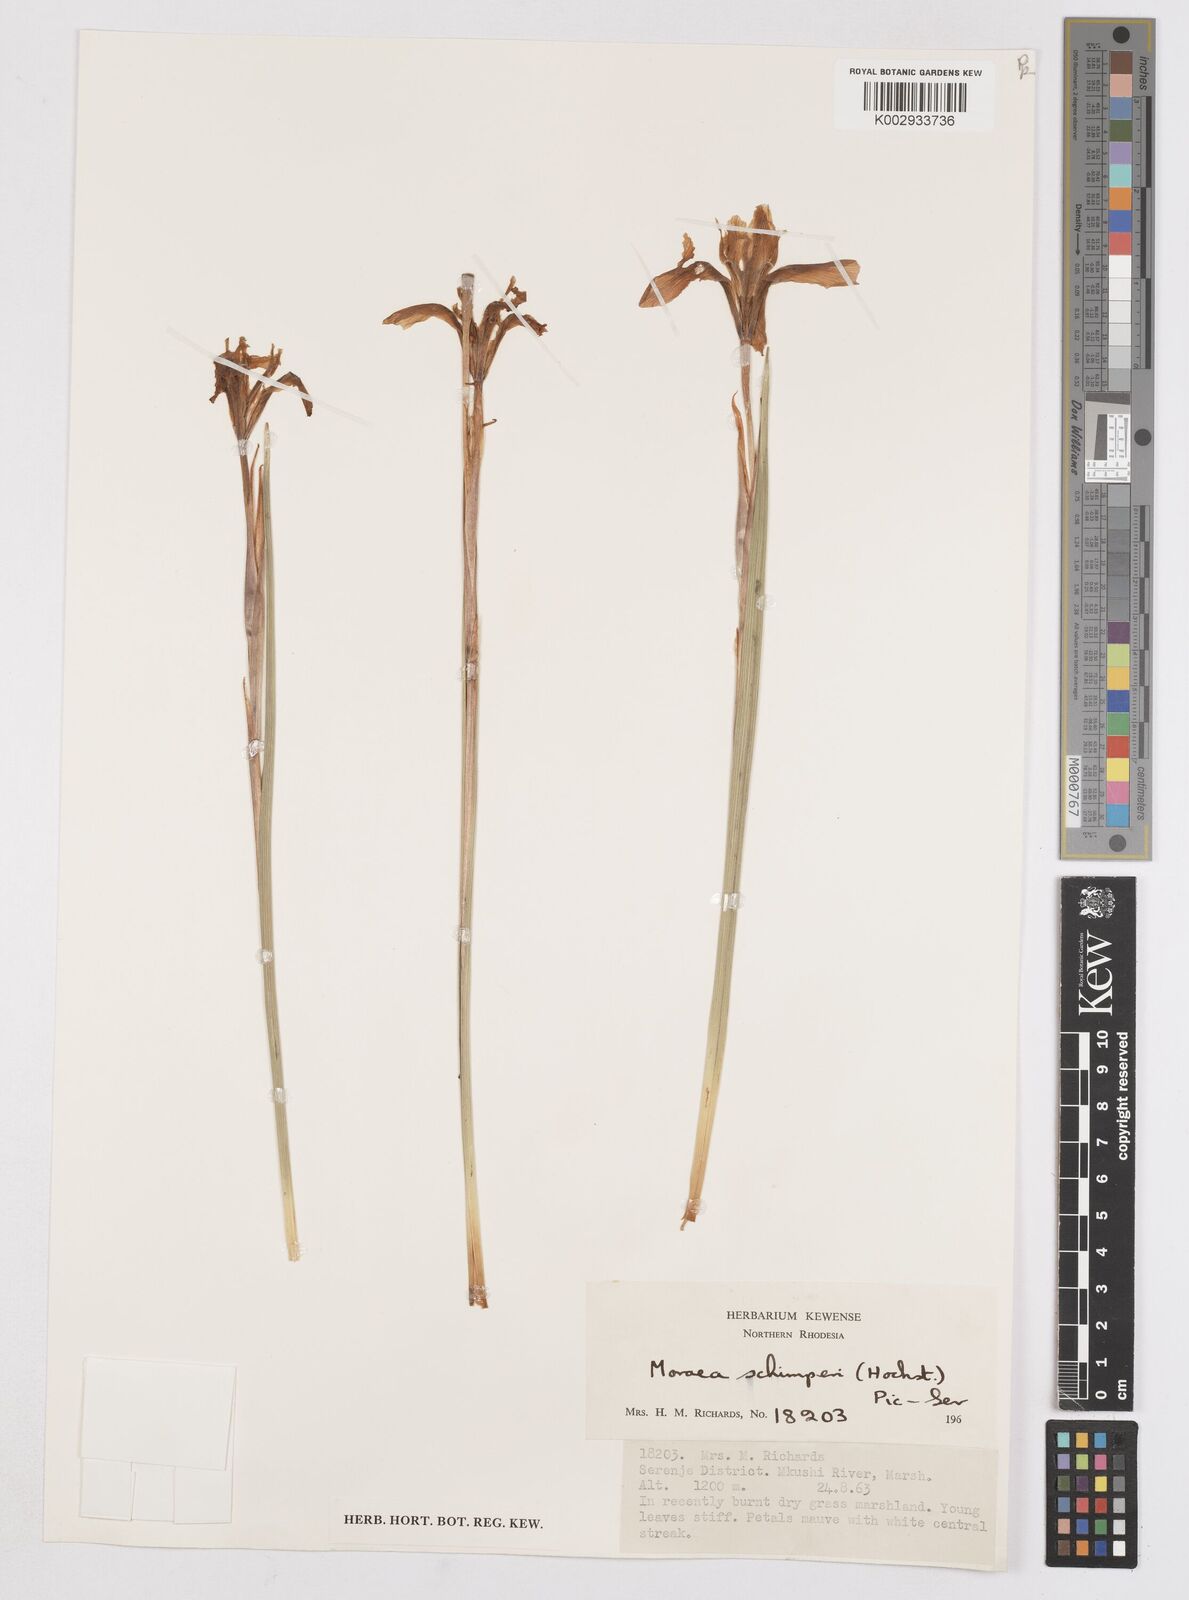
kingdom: Plantae
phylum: Tracheophyta
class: Liliopsida
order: Asparagales
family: Iridaceae
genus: Moraea
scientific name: Moraea schimperi
